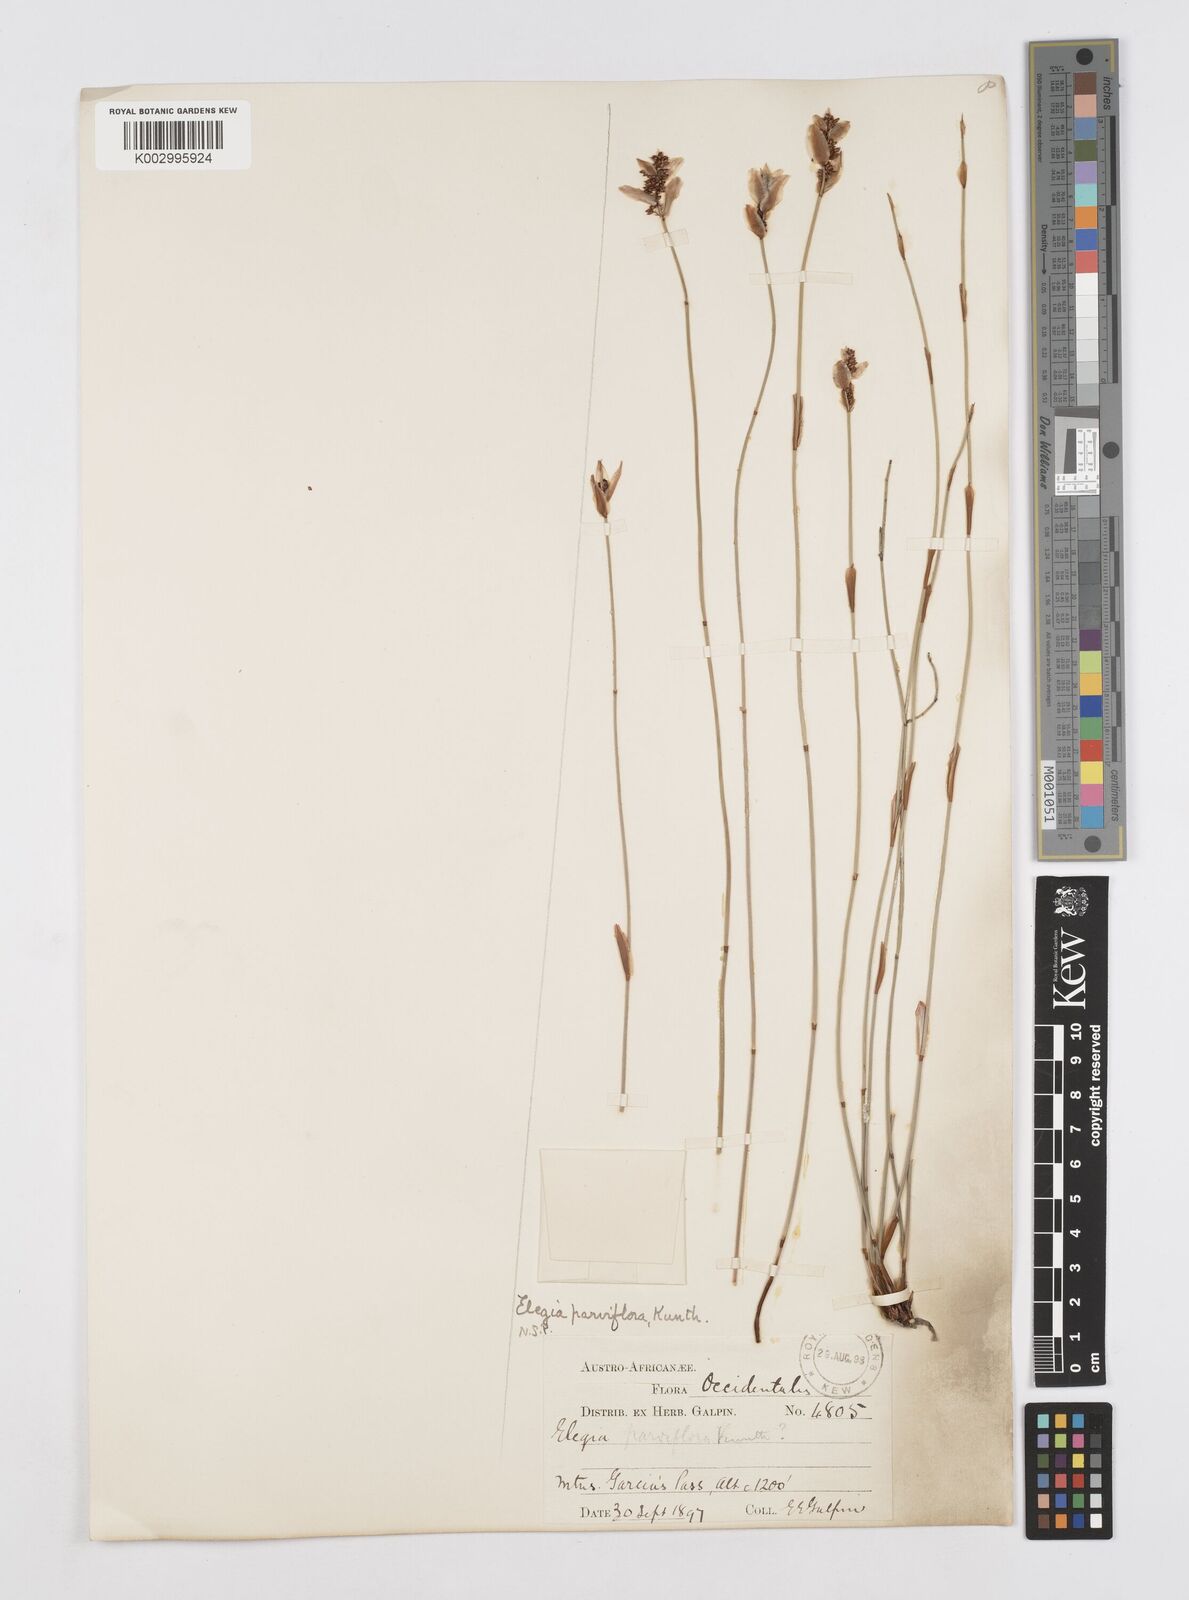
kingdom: Plantae
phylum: Tracheophyta
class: Liliopsida
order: Poales
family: Restionaceae
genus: Cannomois
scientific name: Cannomois parviflora
